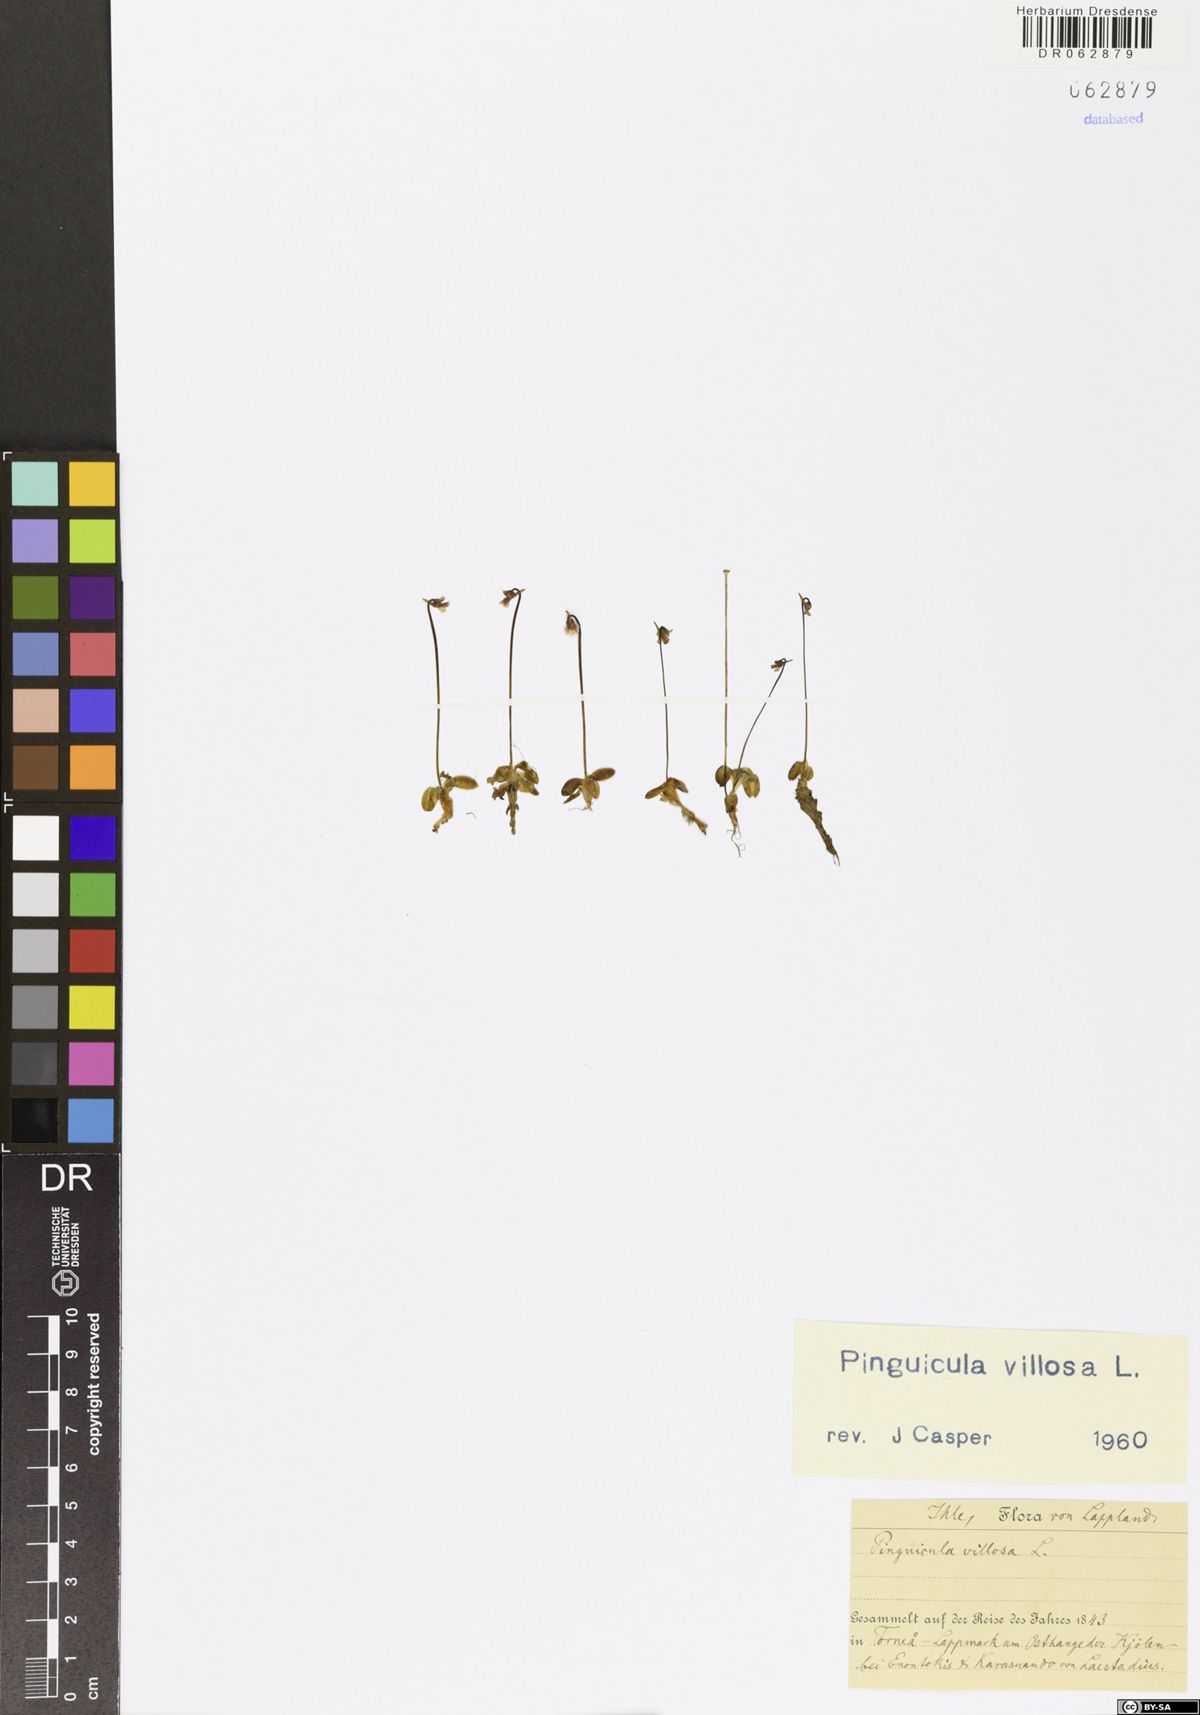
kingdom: Plantae
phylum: Tracheophyta
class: Magnoliopsida
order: Lamiales
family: Lentibulariaceae
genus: Pinguicula
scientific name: Pinguicula villosa
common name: Hairy butterwort
